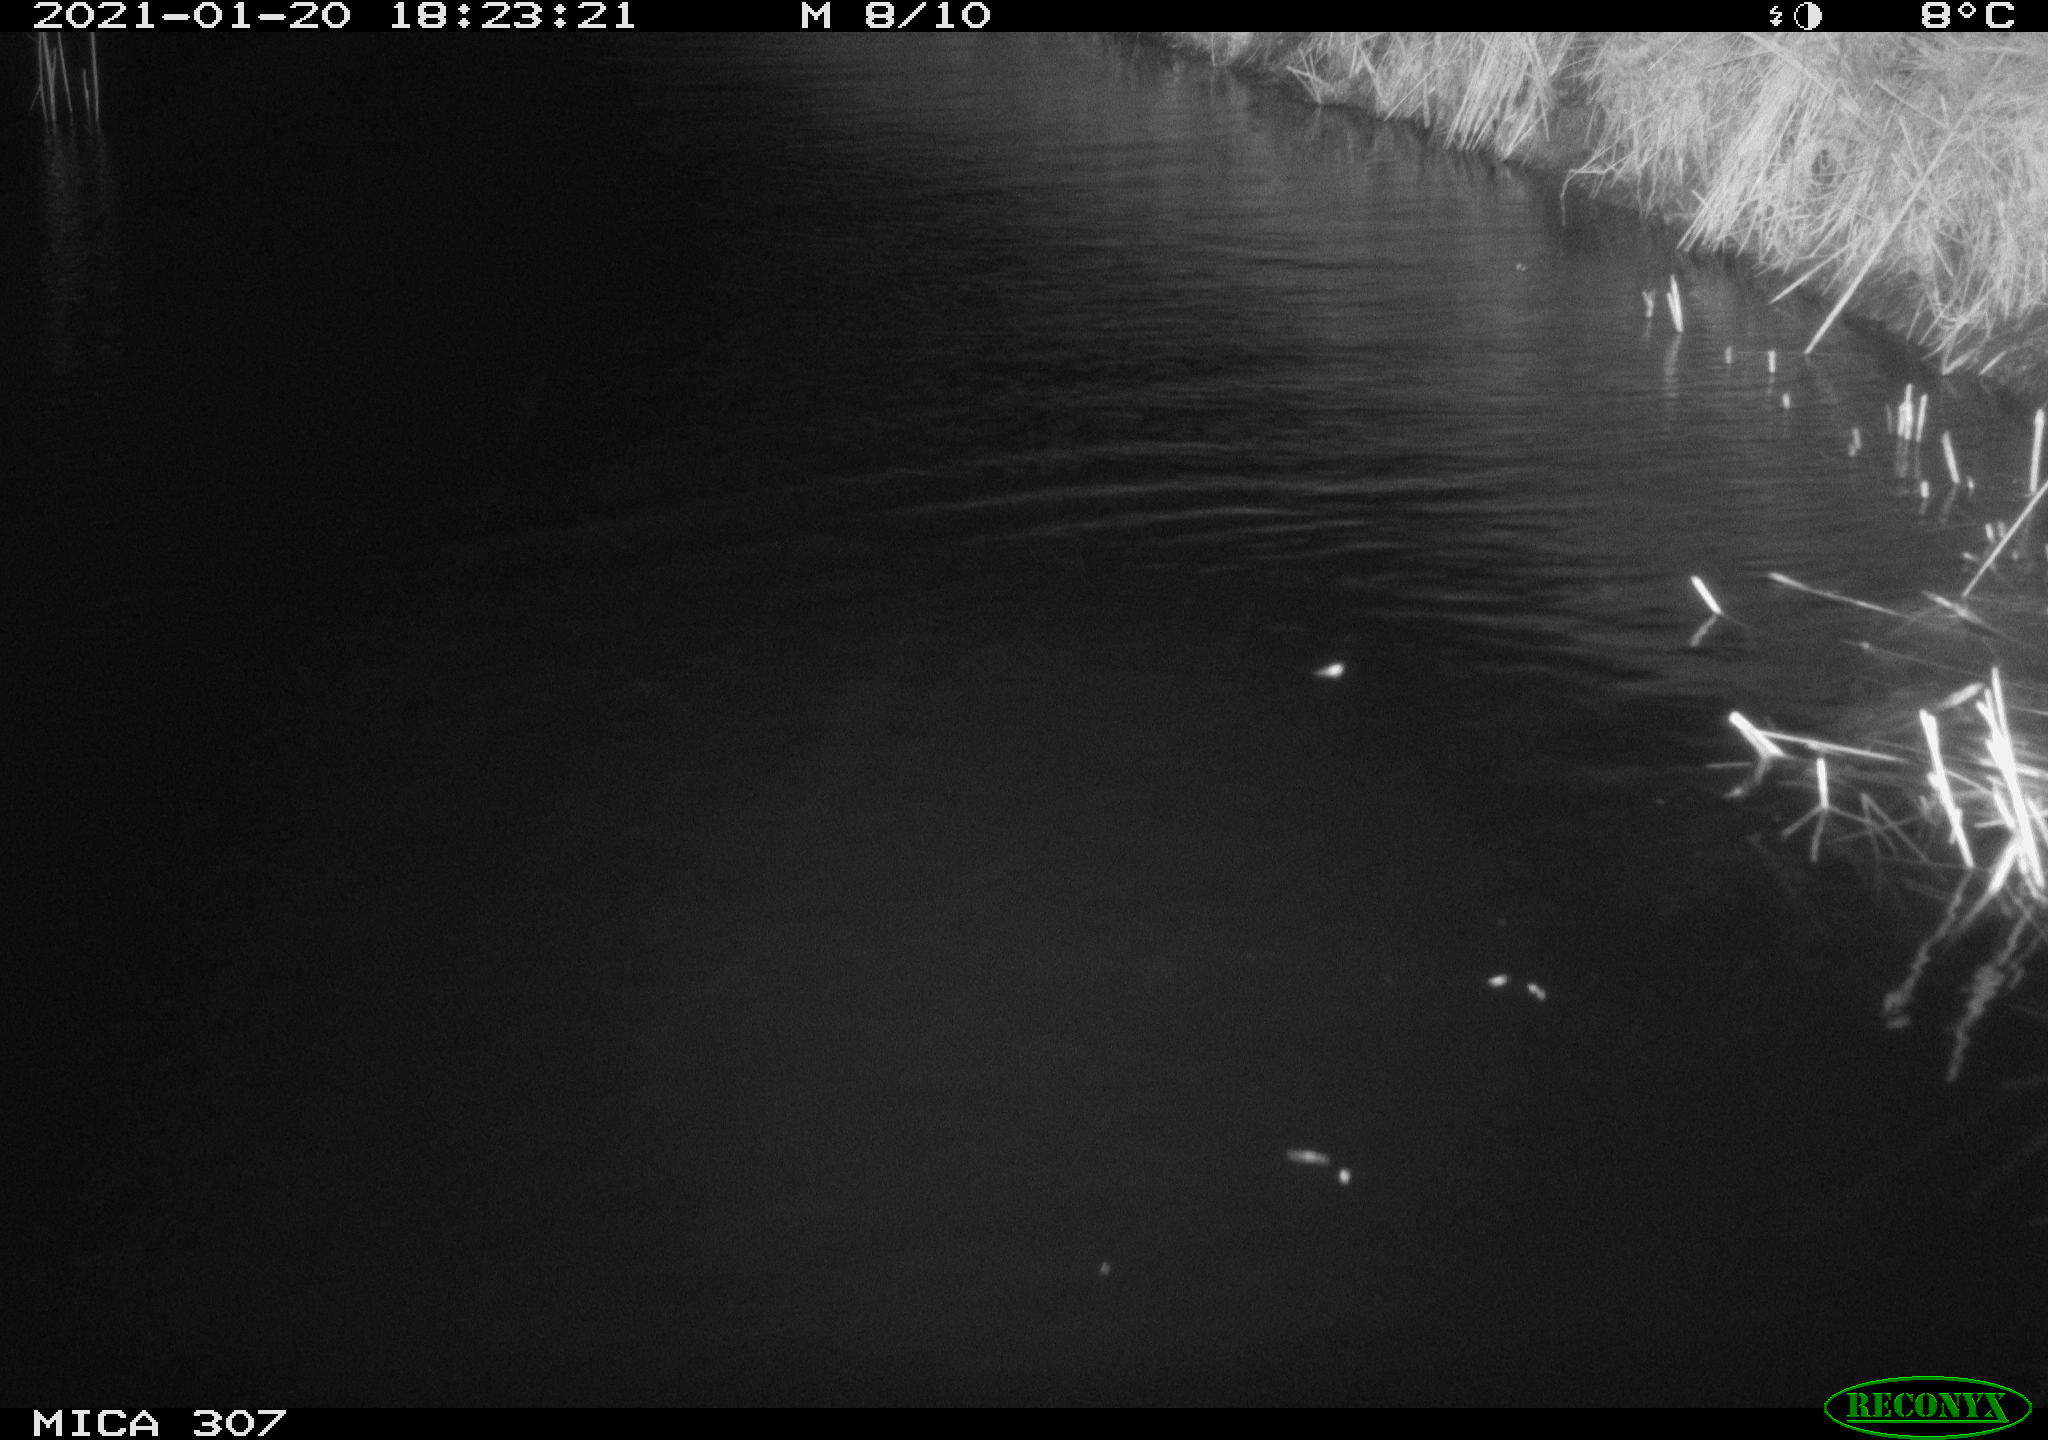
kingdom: Animalia
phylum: Chordata
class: Mammalia
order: Rodentia
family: Muridae
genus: Rattus
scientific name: Rattus norvegicus
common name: Brown rat
